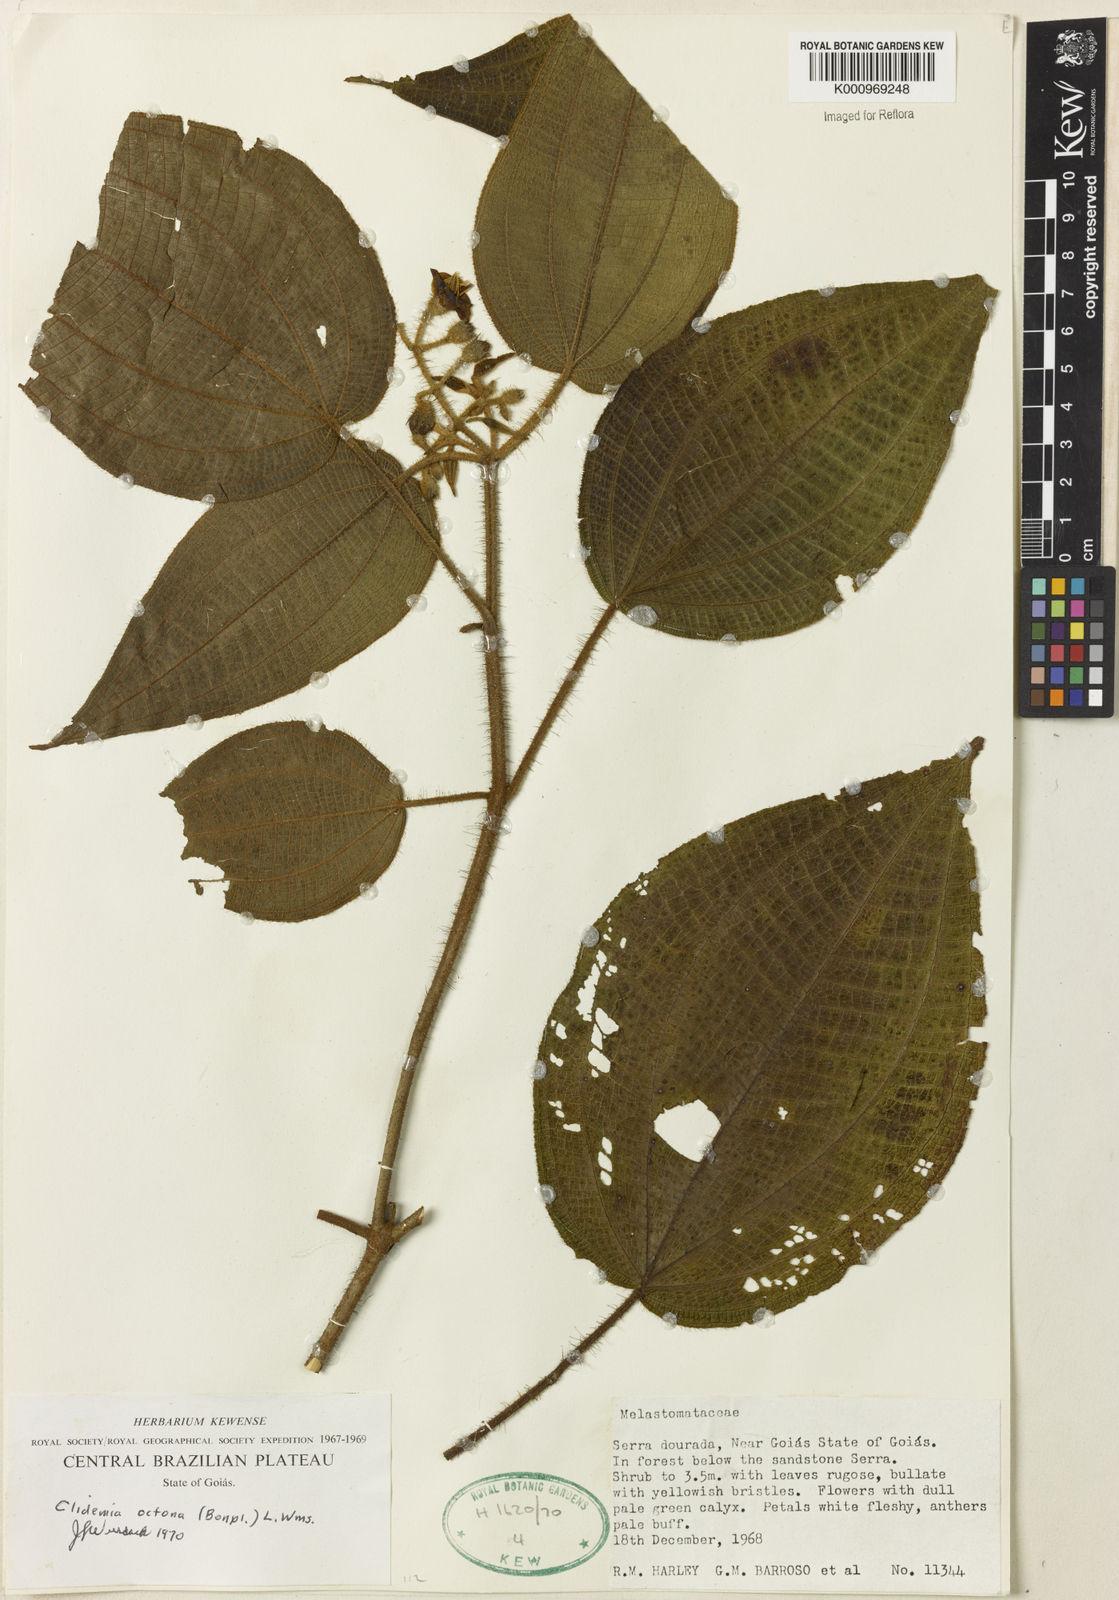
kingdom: Plantae
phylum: Tracheophyta
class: Magnoliopsida
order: Myrtales
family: Melastomataceae
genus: Miconia
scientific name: Miconia octona
